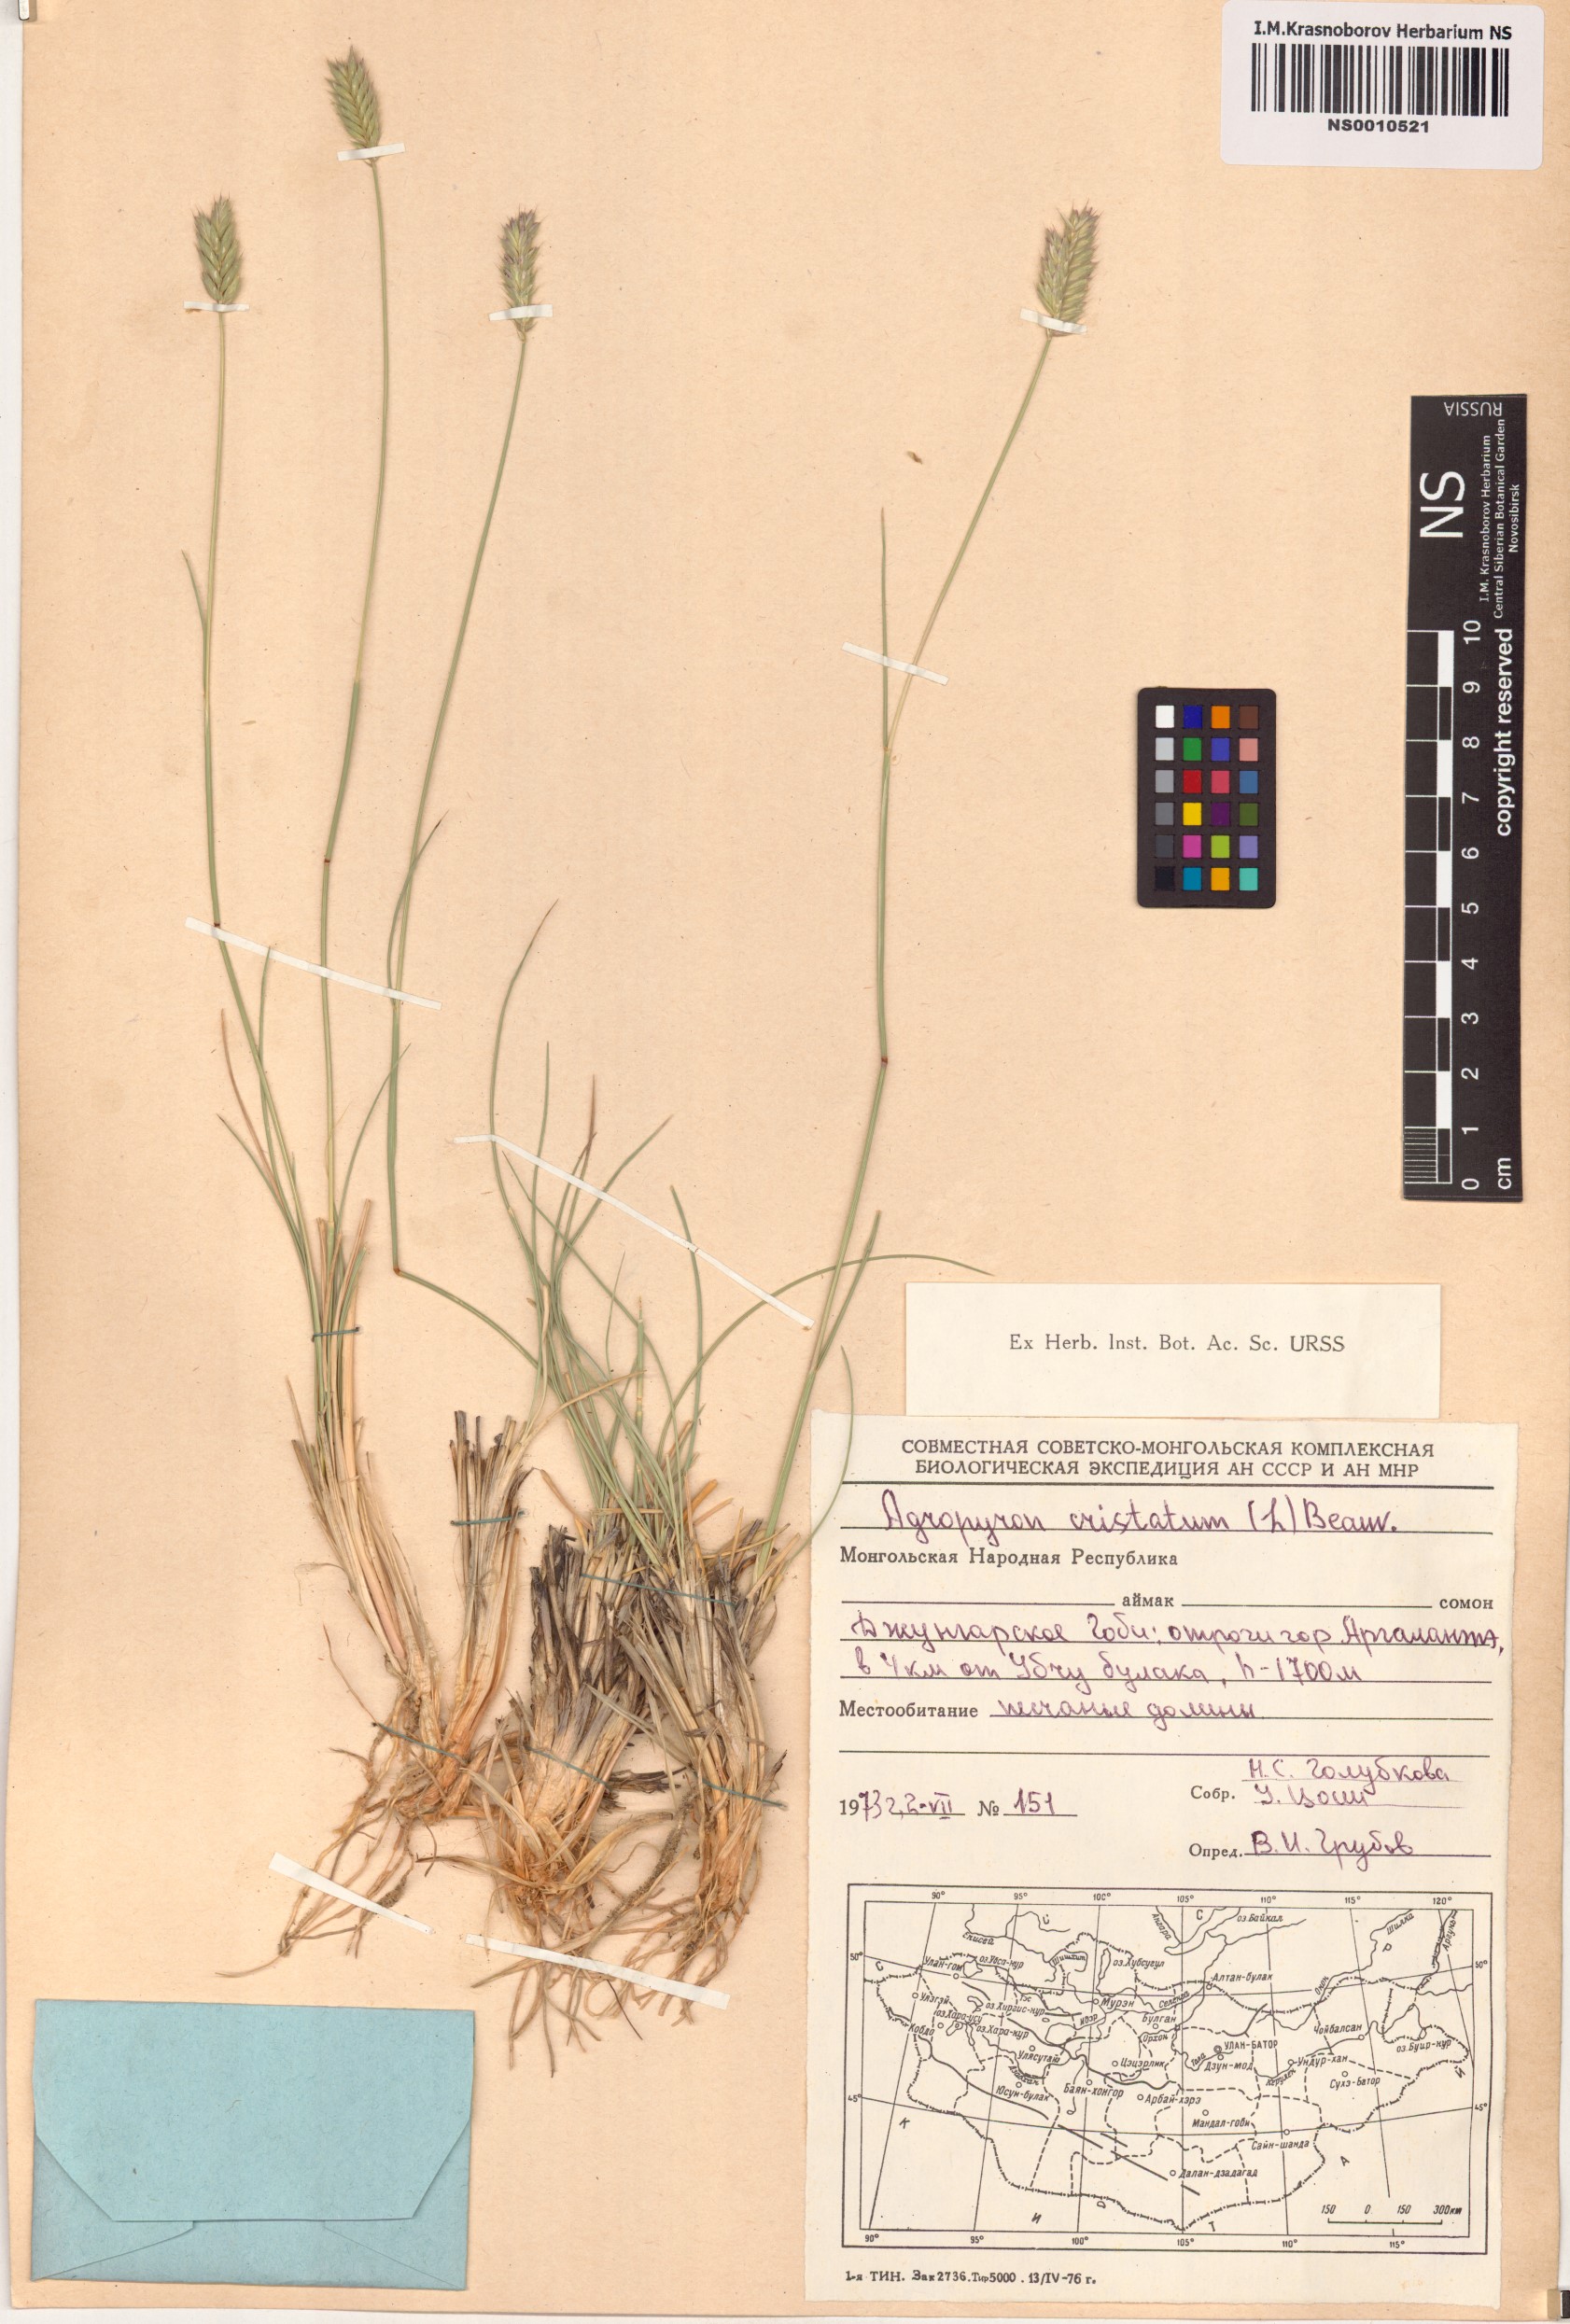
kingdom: Plantae
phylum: Tracheophyta
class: Liliopsida
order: Poales
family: Poaceae
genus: Agropyron
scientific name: Agropyron cristatum
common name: Crested wheatgrass
